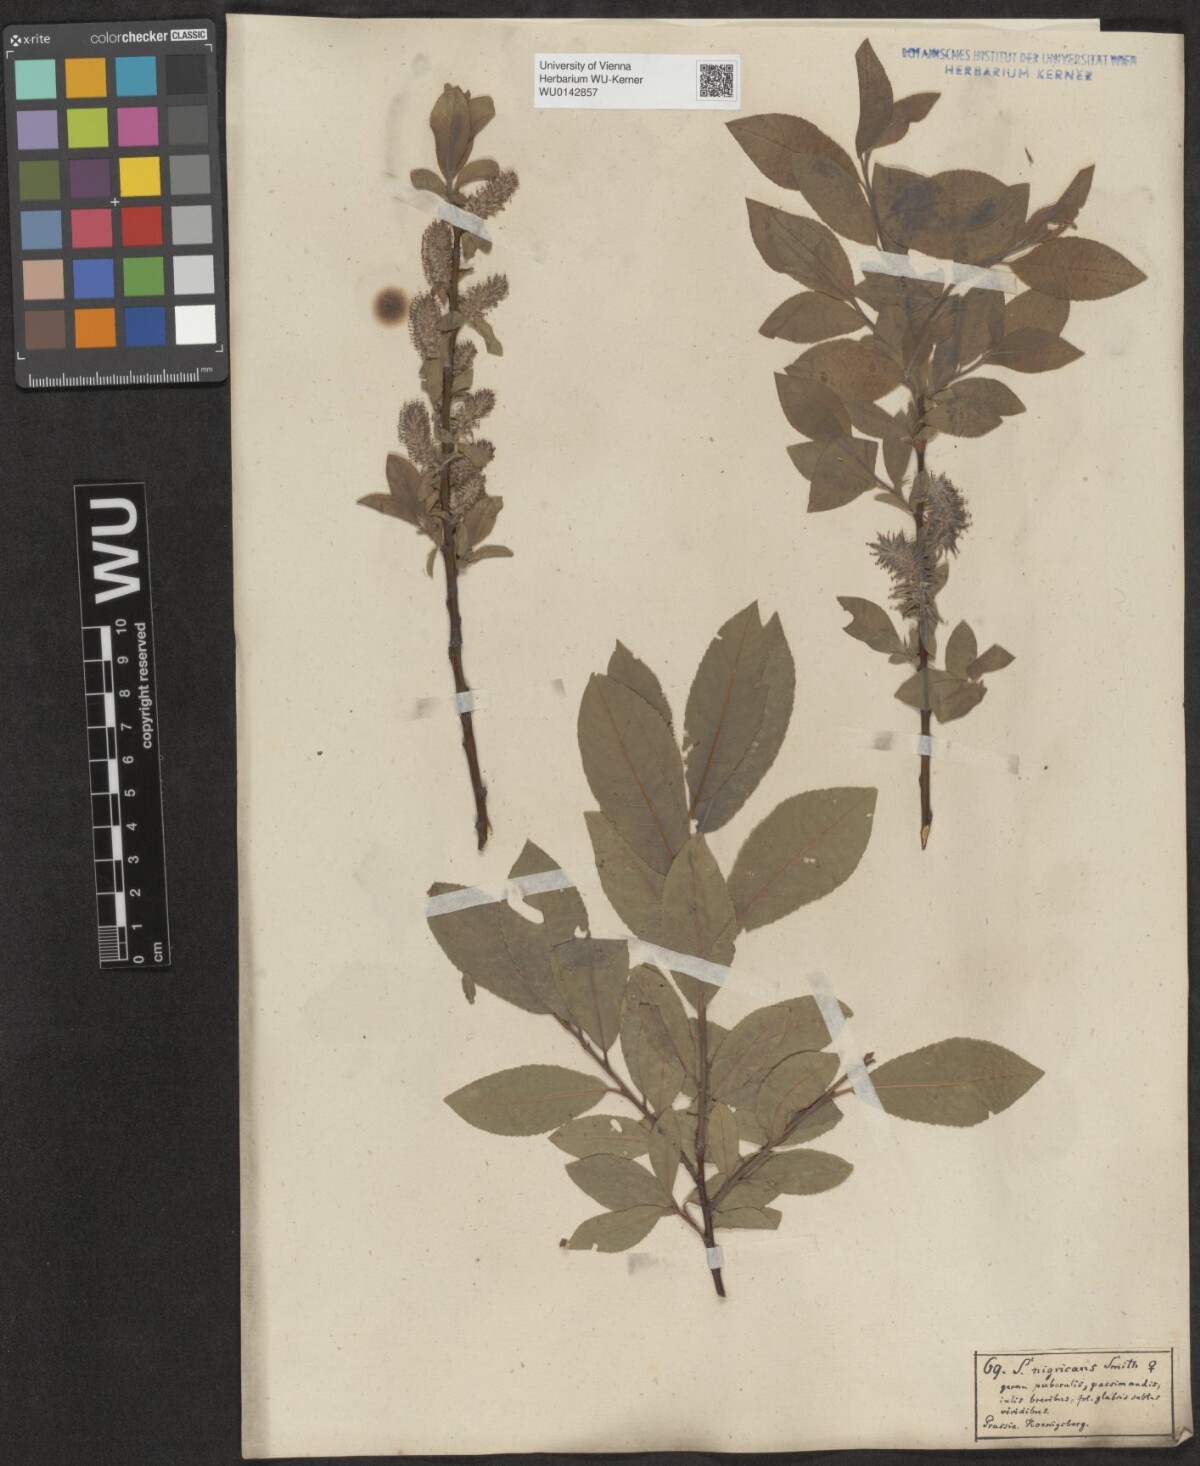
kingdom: Plantae
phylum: Tracheophyta
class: Magnoliopsida
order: Malpighiales
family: Salicaceae
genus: Salix
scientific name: Salix myrsinifolia
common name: Dark-leaved willow
